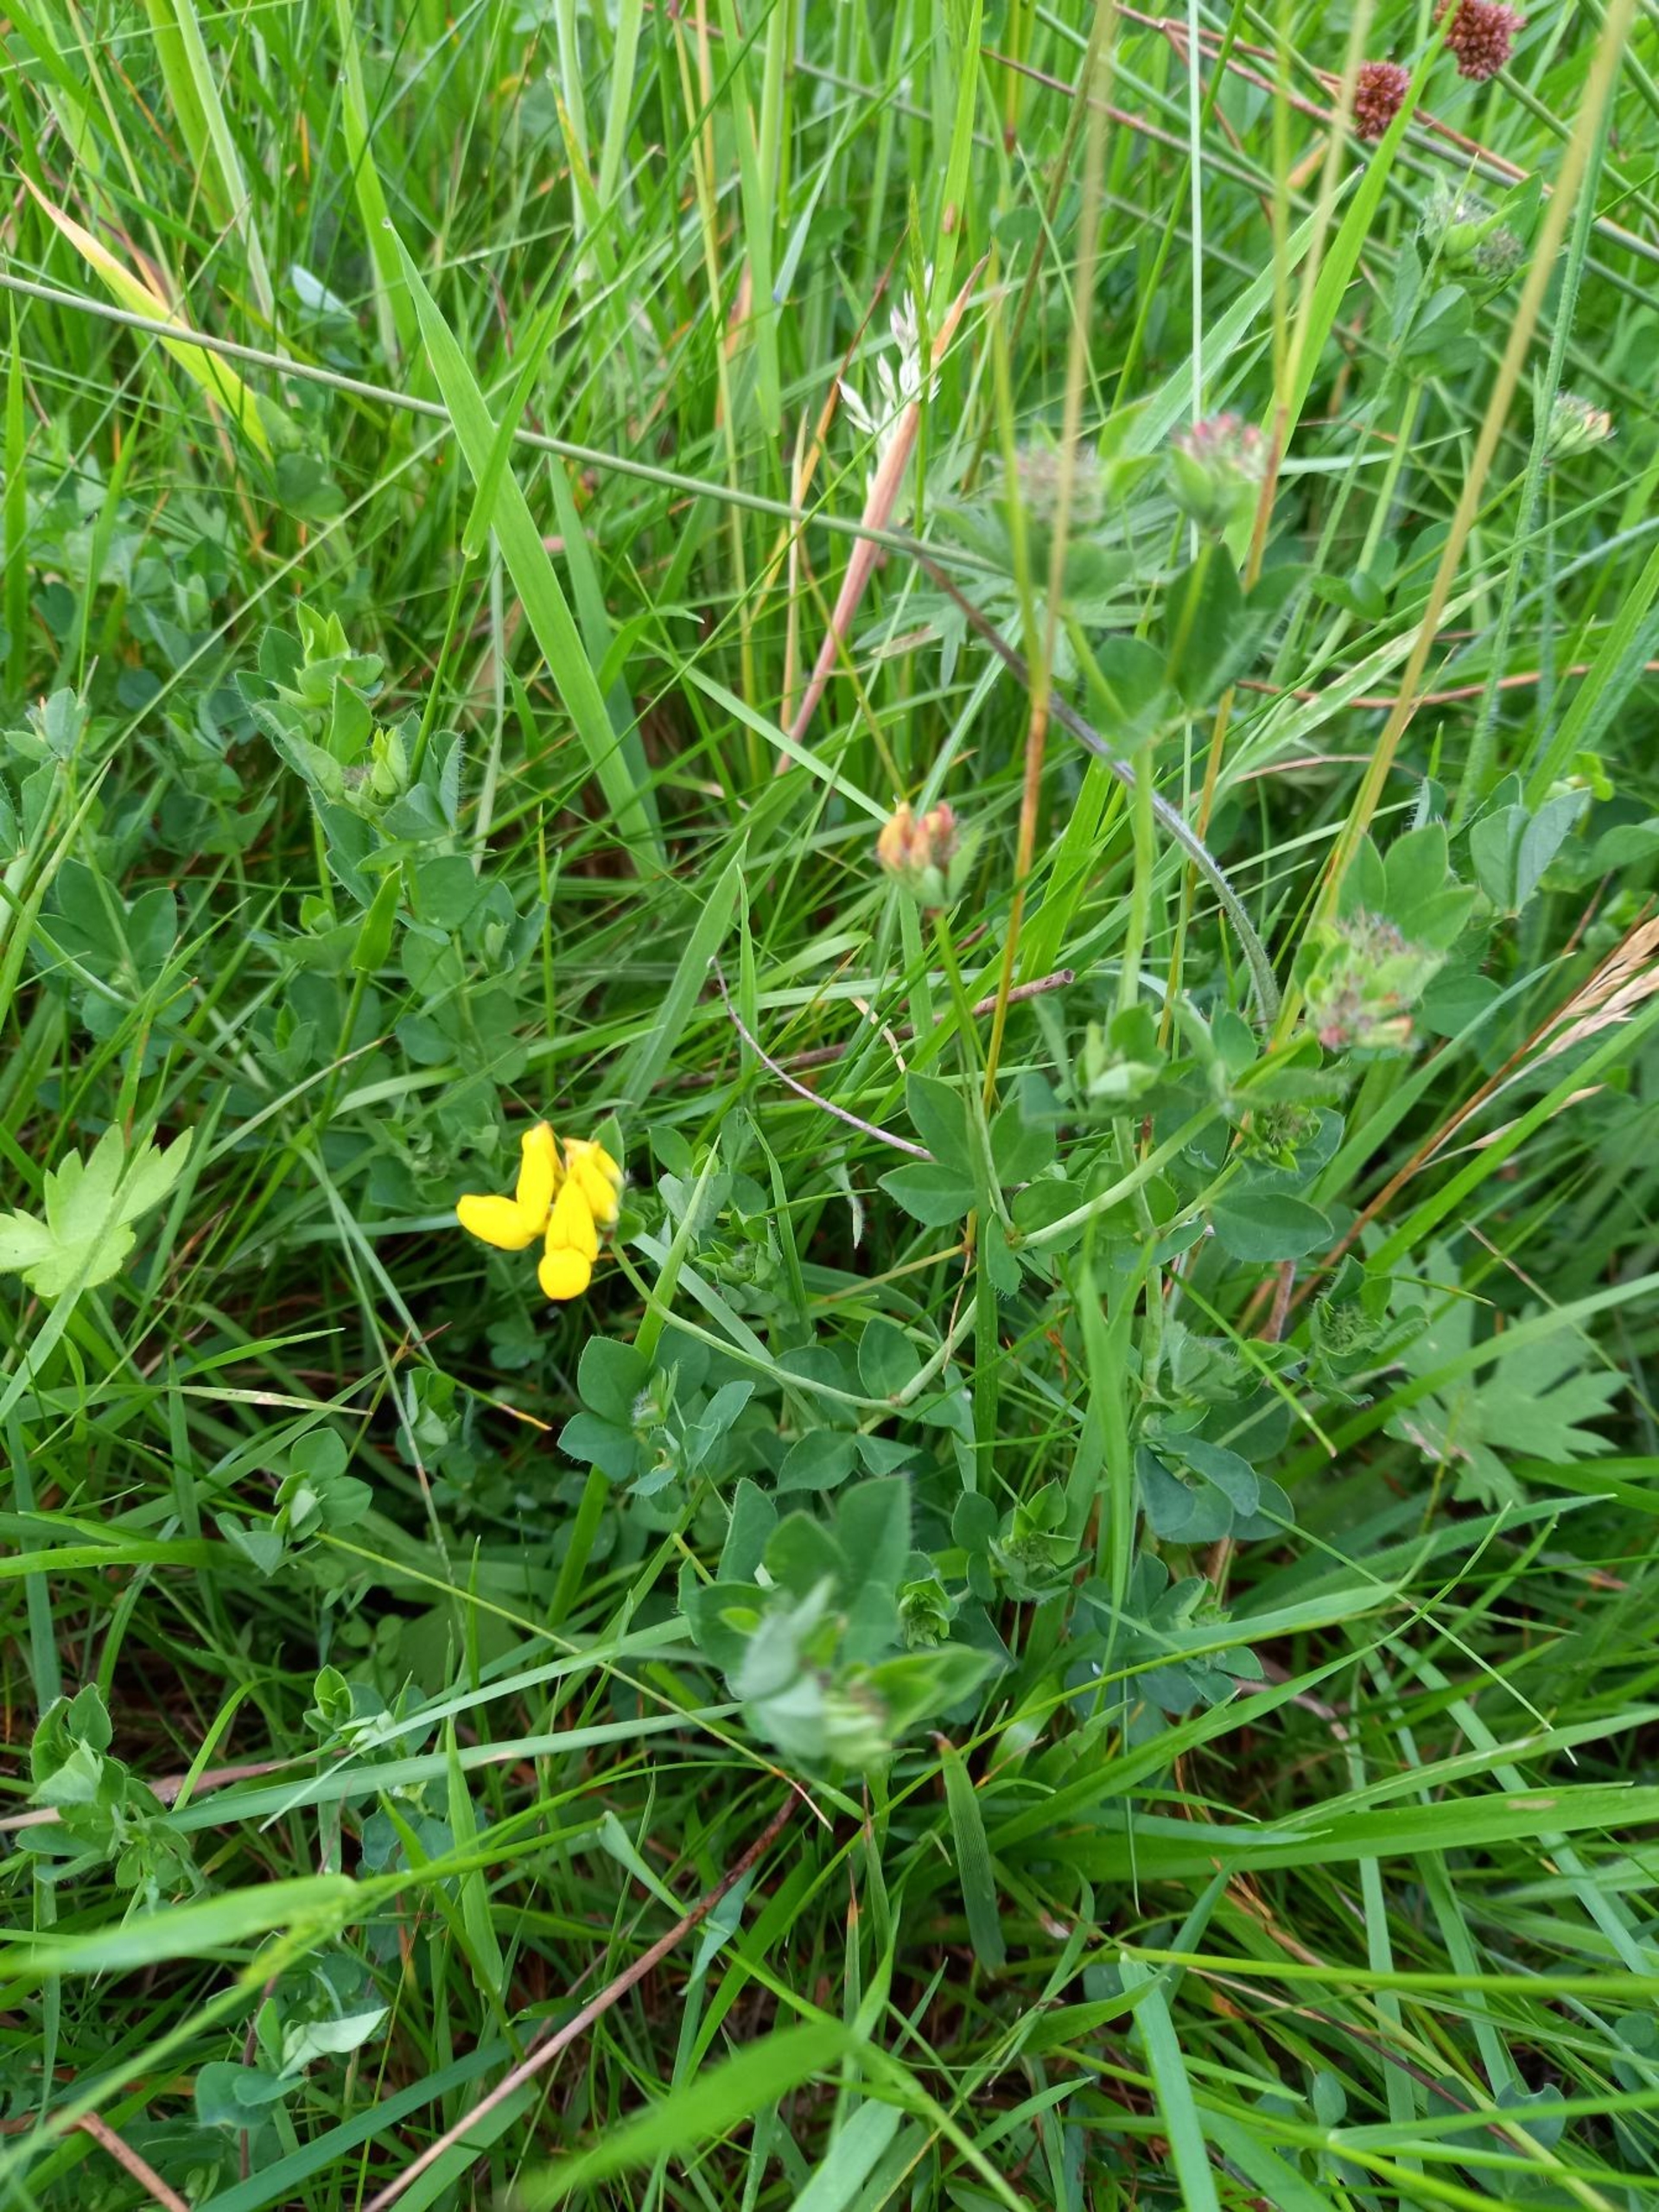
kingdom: Plantae
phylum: Tracheophyta
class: Magnoliopsida
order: Fabales
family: Fabaceae
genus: Lotus
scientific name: Lotus pedunculatus
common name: Sump-kællingetand
